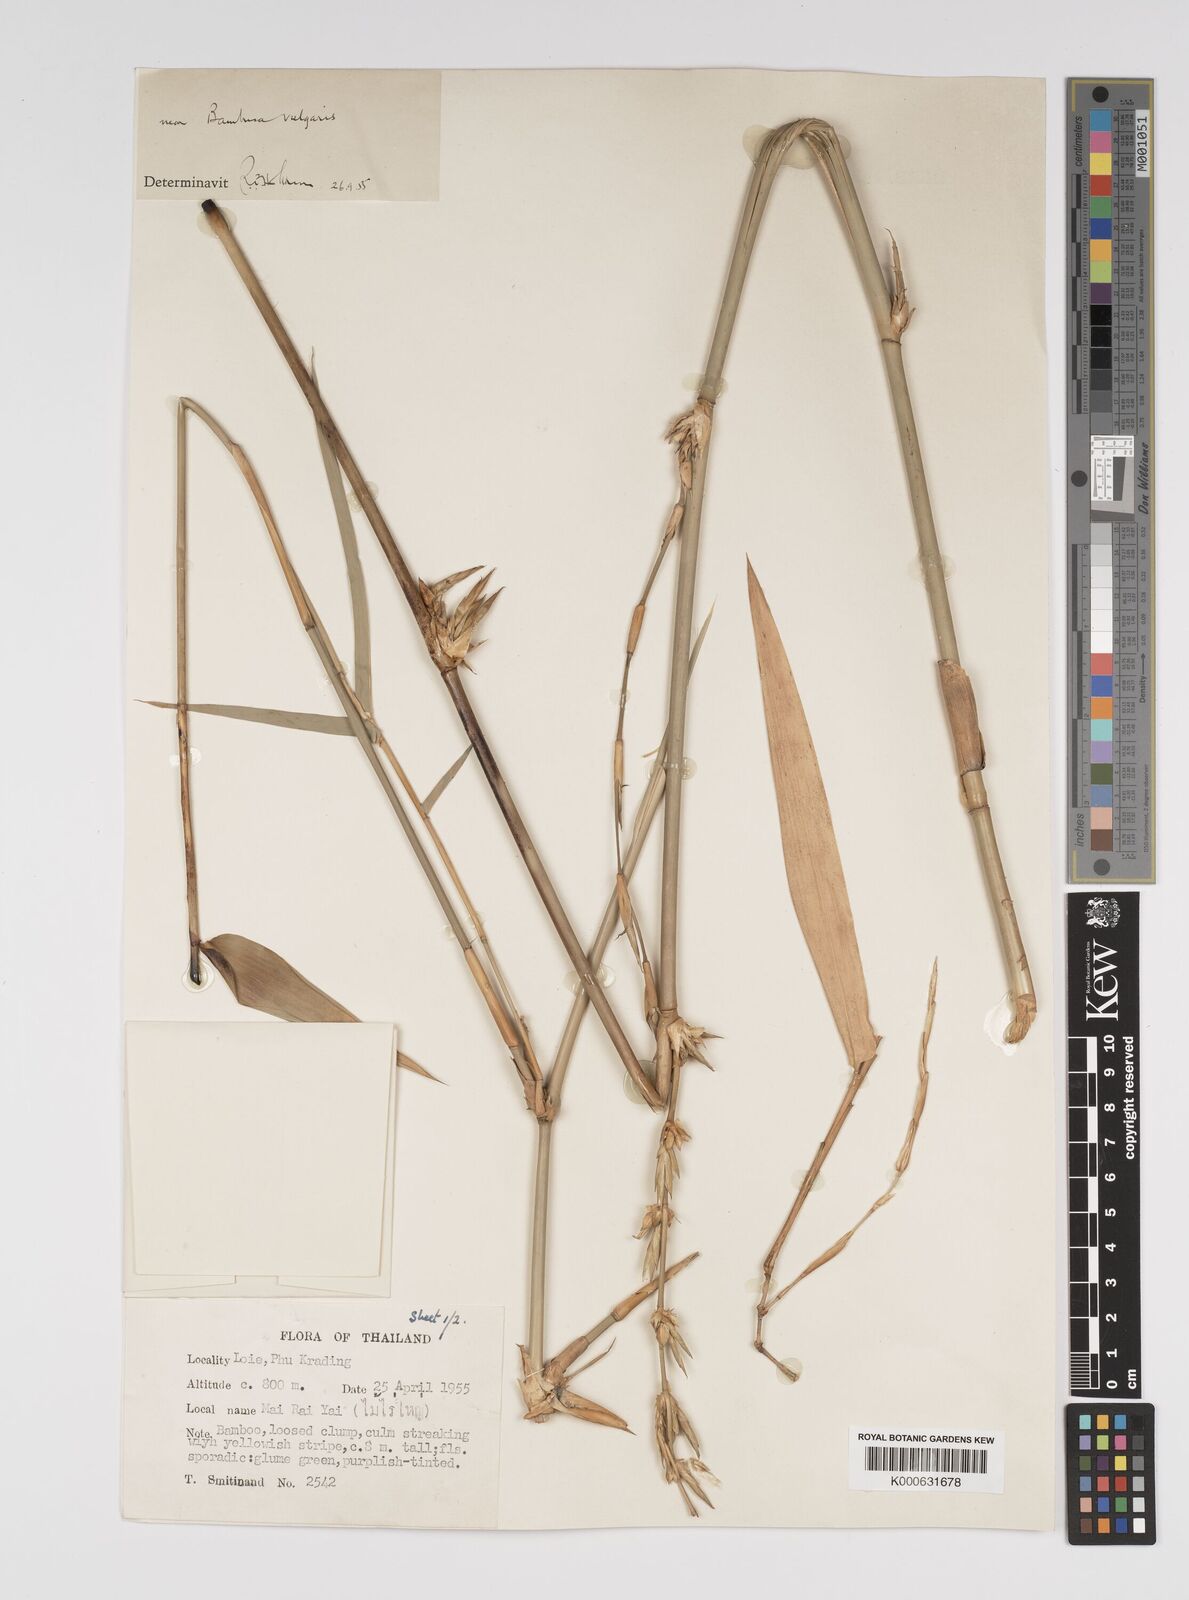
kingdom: Plantae
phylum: Tracheophyta
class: Liliopsida
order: Poales
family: Poaceae
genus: Bambusa
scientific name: Bambusa
